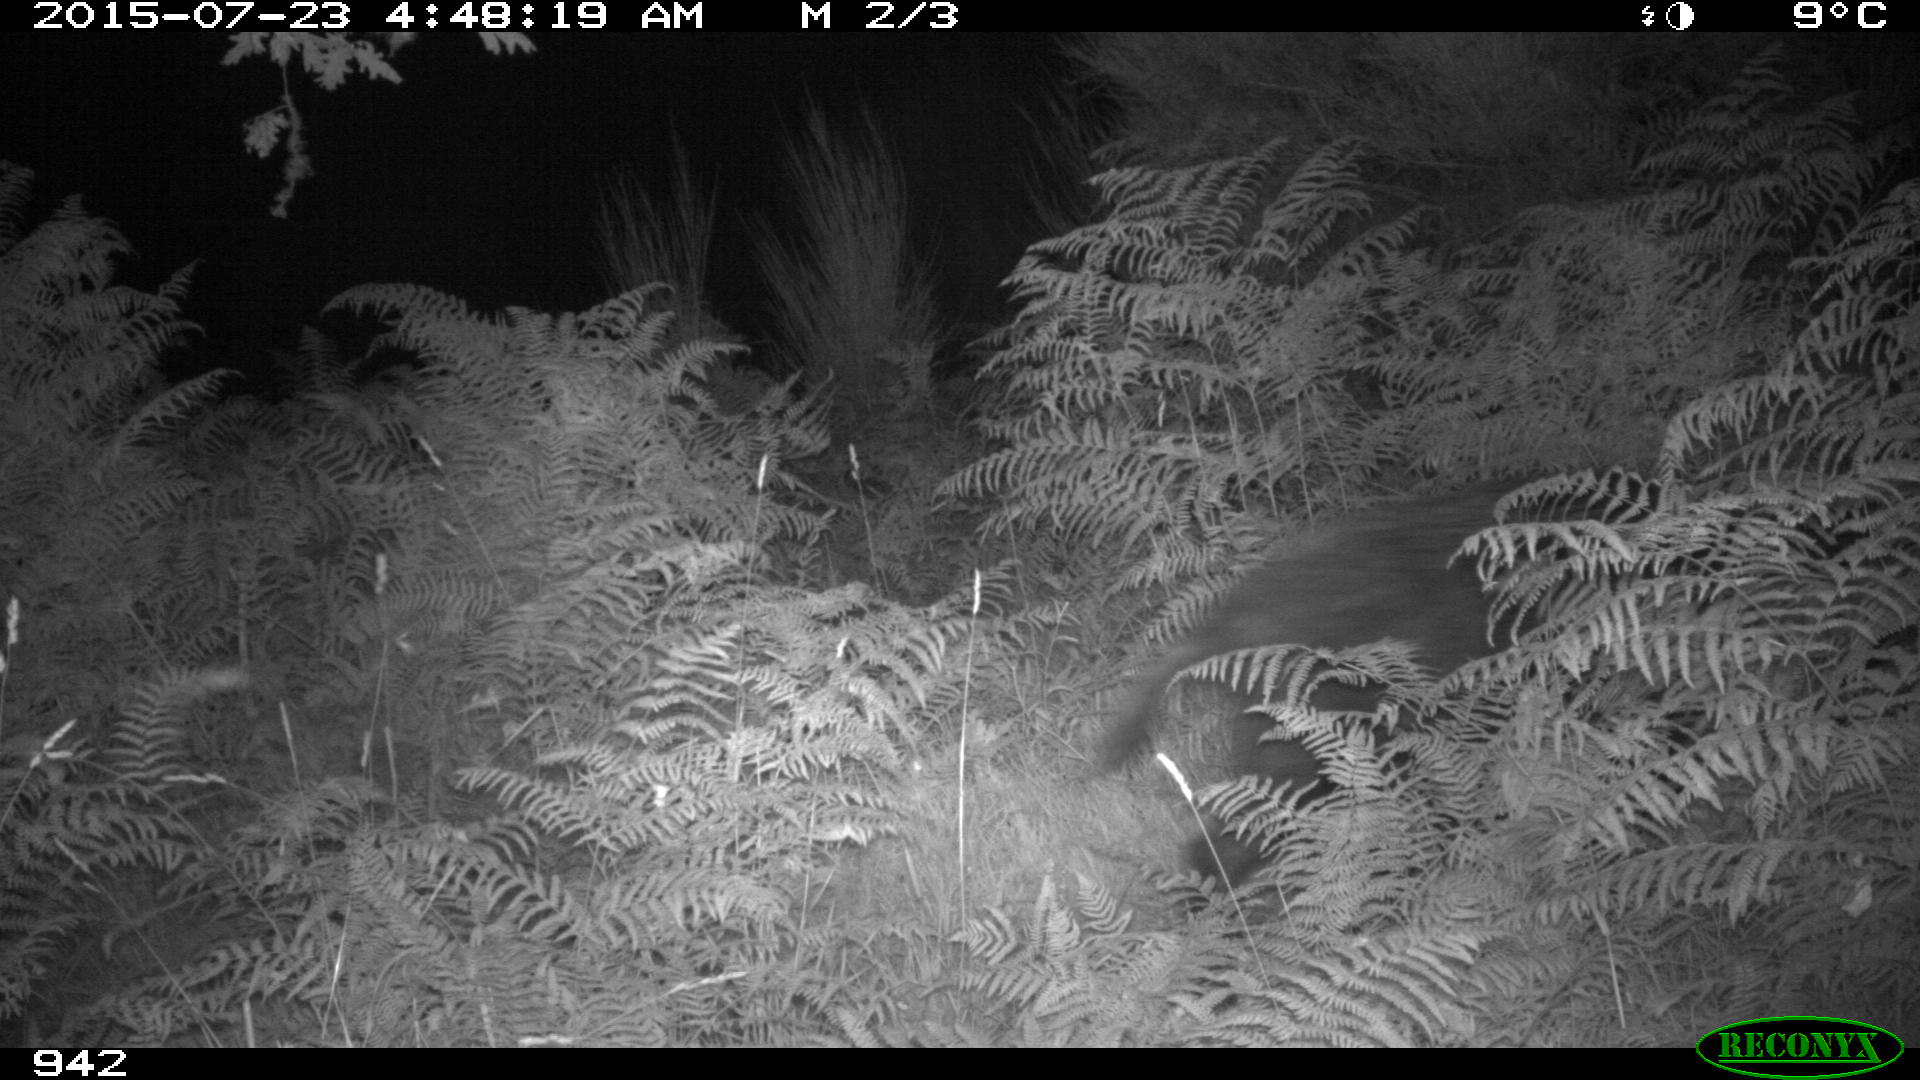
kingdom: Animalia
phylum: Chordata
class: Mammalia
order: Artiodactyla
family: Suidae
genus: Sus
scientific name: Sus scrofa
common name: Wild boar
